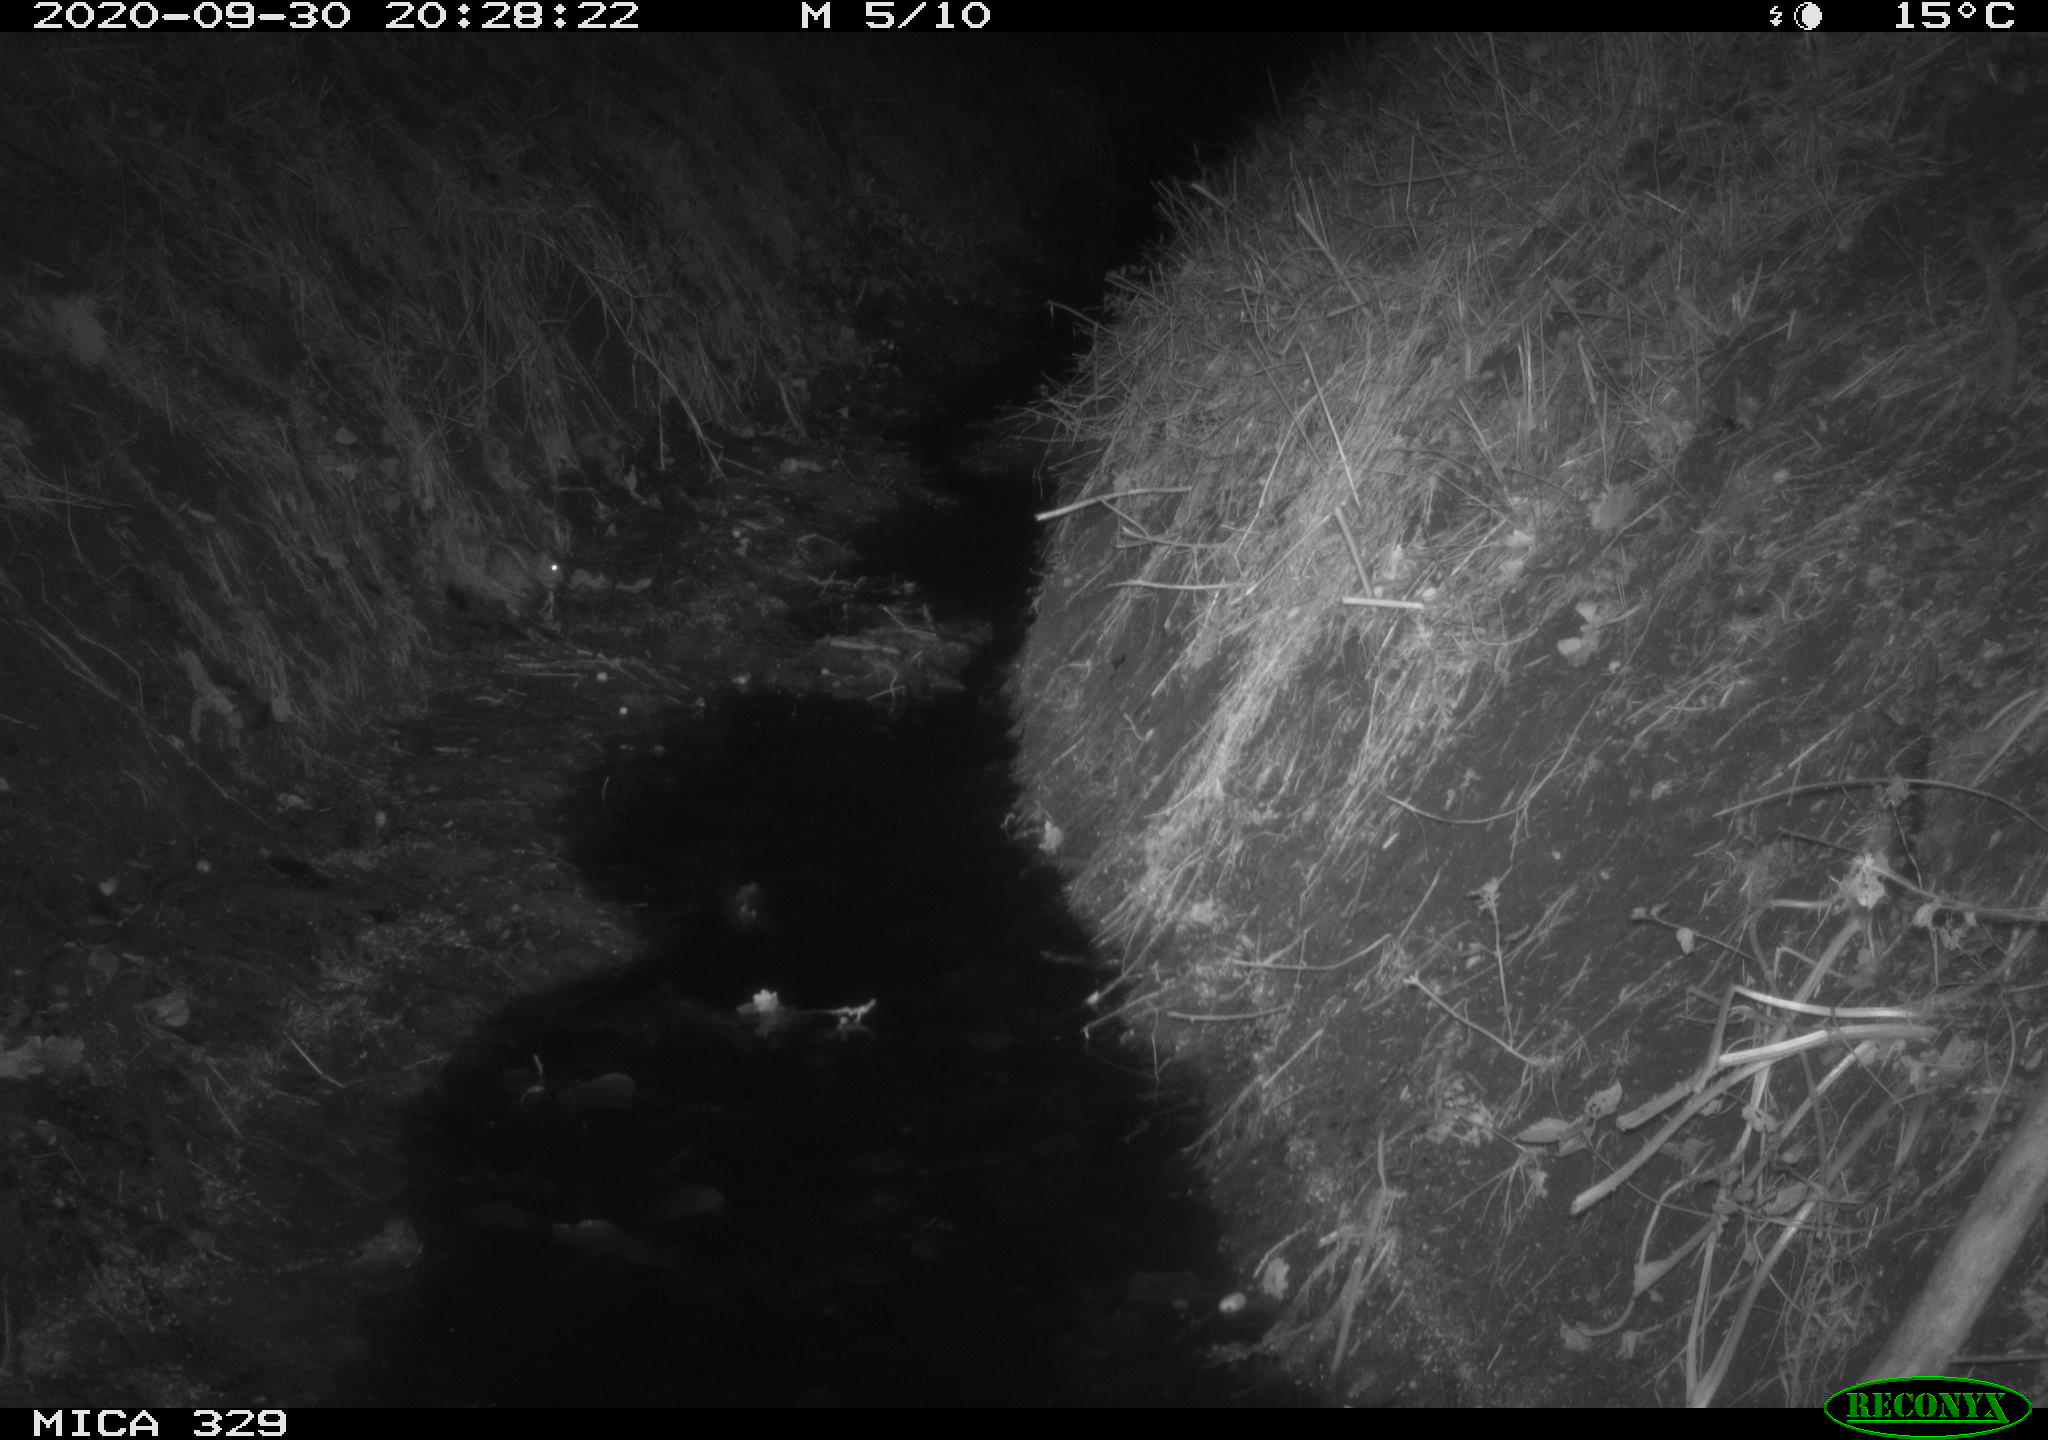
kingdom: Animalia
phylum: Chordata
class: Mammalia
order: Rodentia
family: Muridae
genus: Rattus
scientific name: Rattus norvegicus
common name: Brown rat
